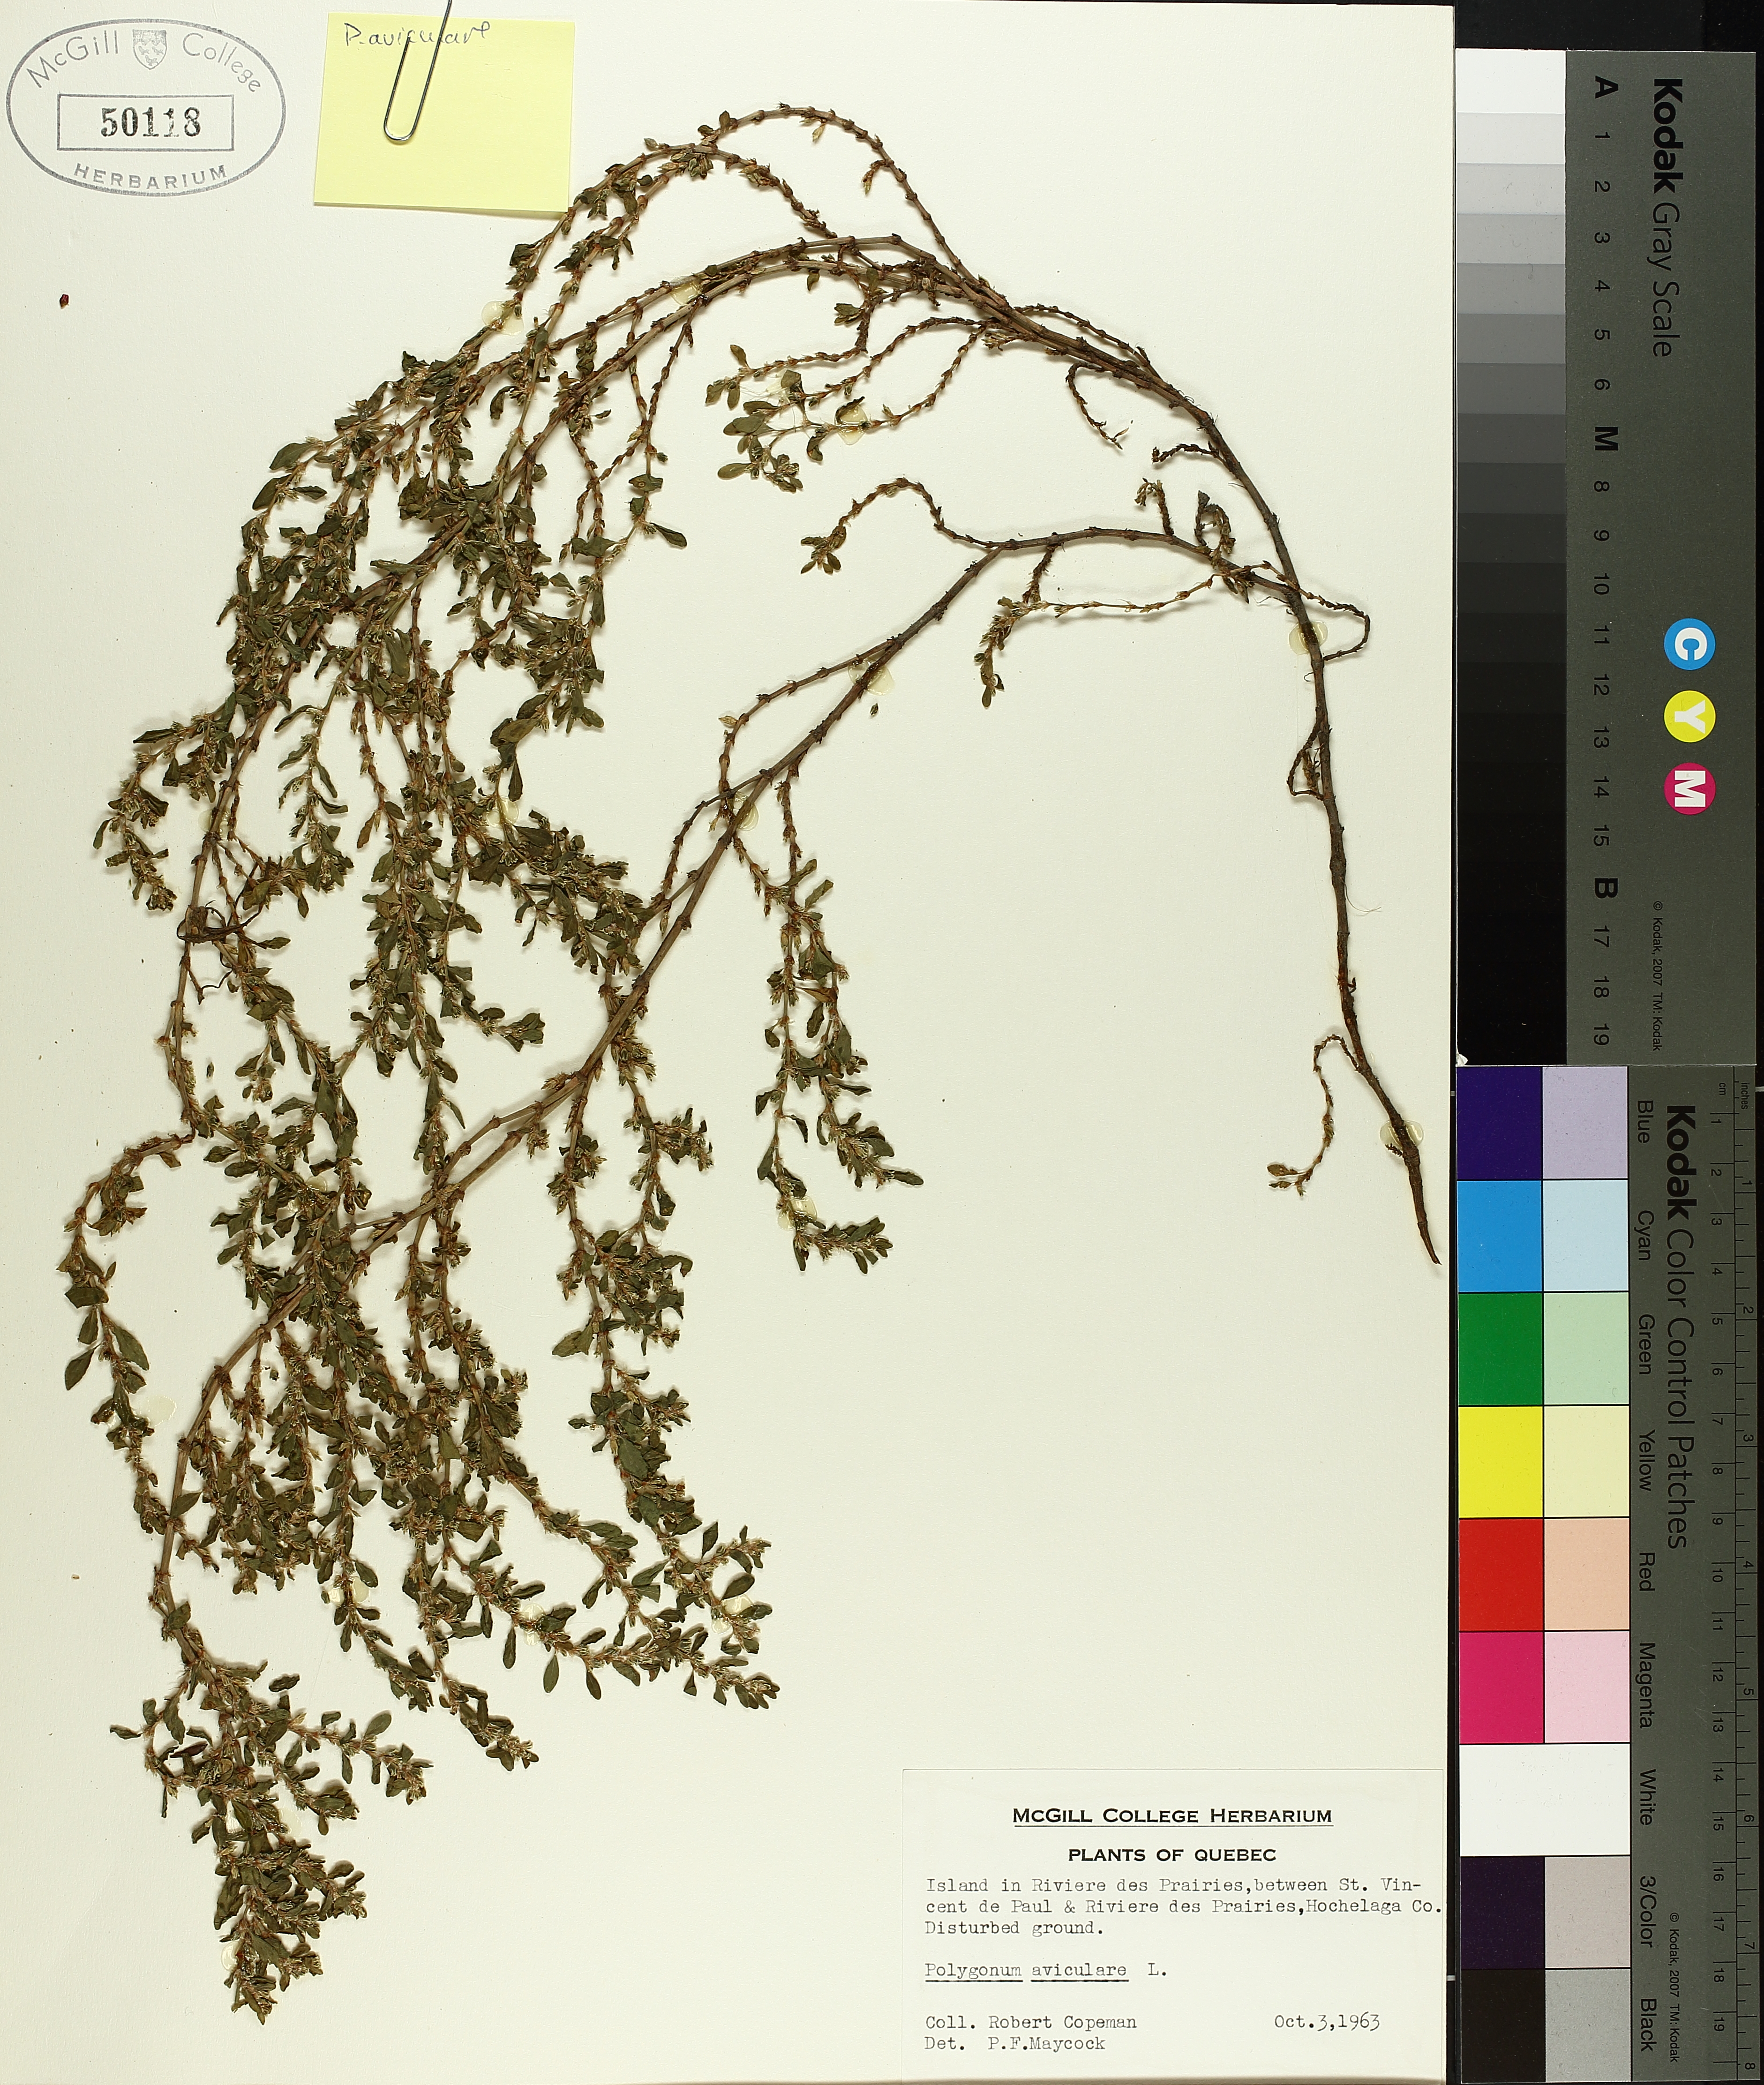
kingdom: Plantae
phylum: Tracheophyta
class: Magnoliopsida
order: Caryophyllales
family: Polygonaceae
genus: Polygonum
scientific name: Polygonum aviculare
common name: Prostrate knotweed
